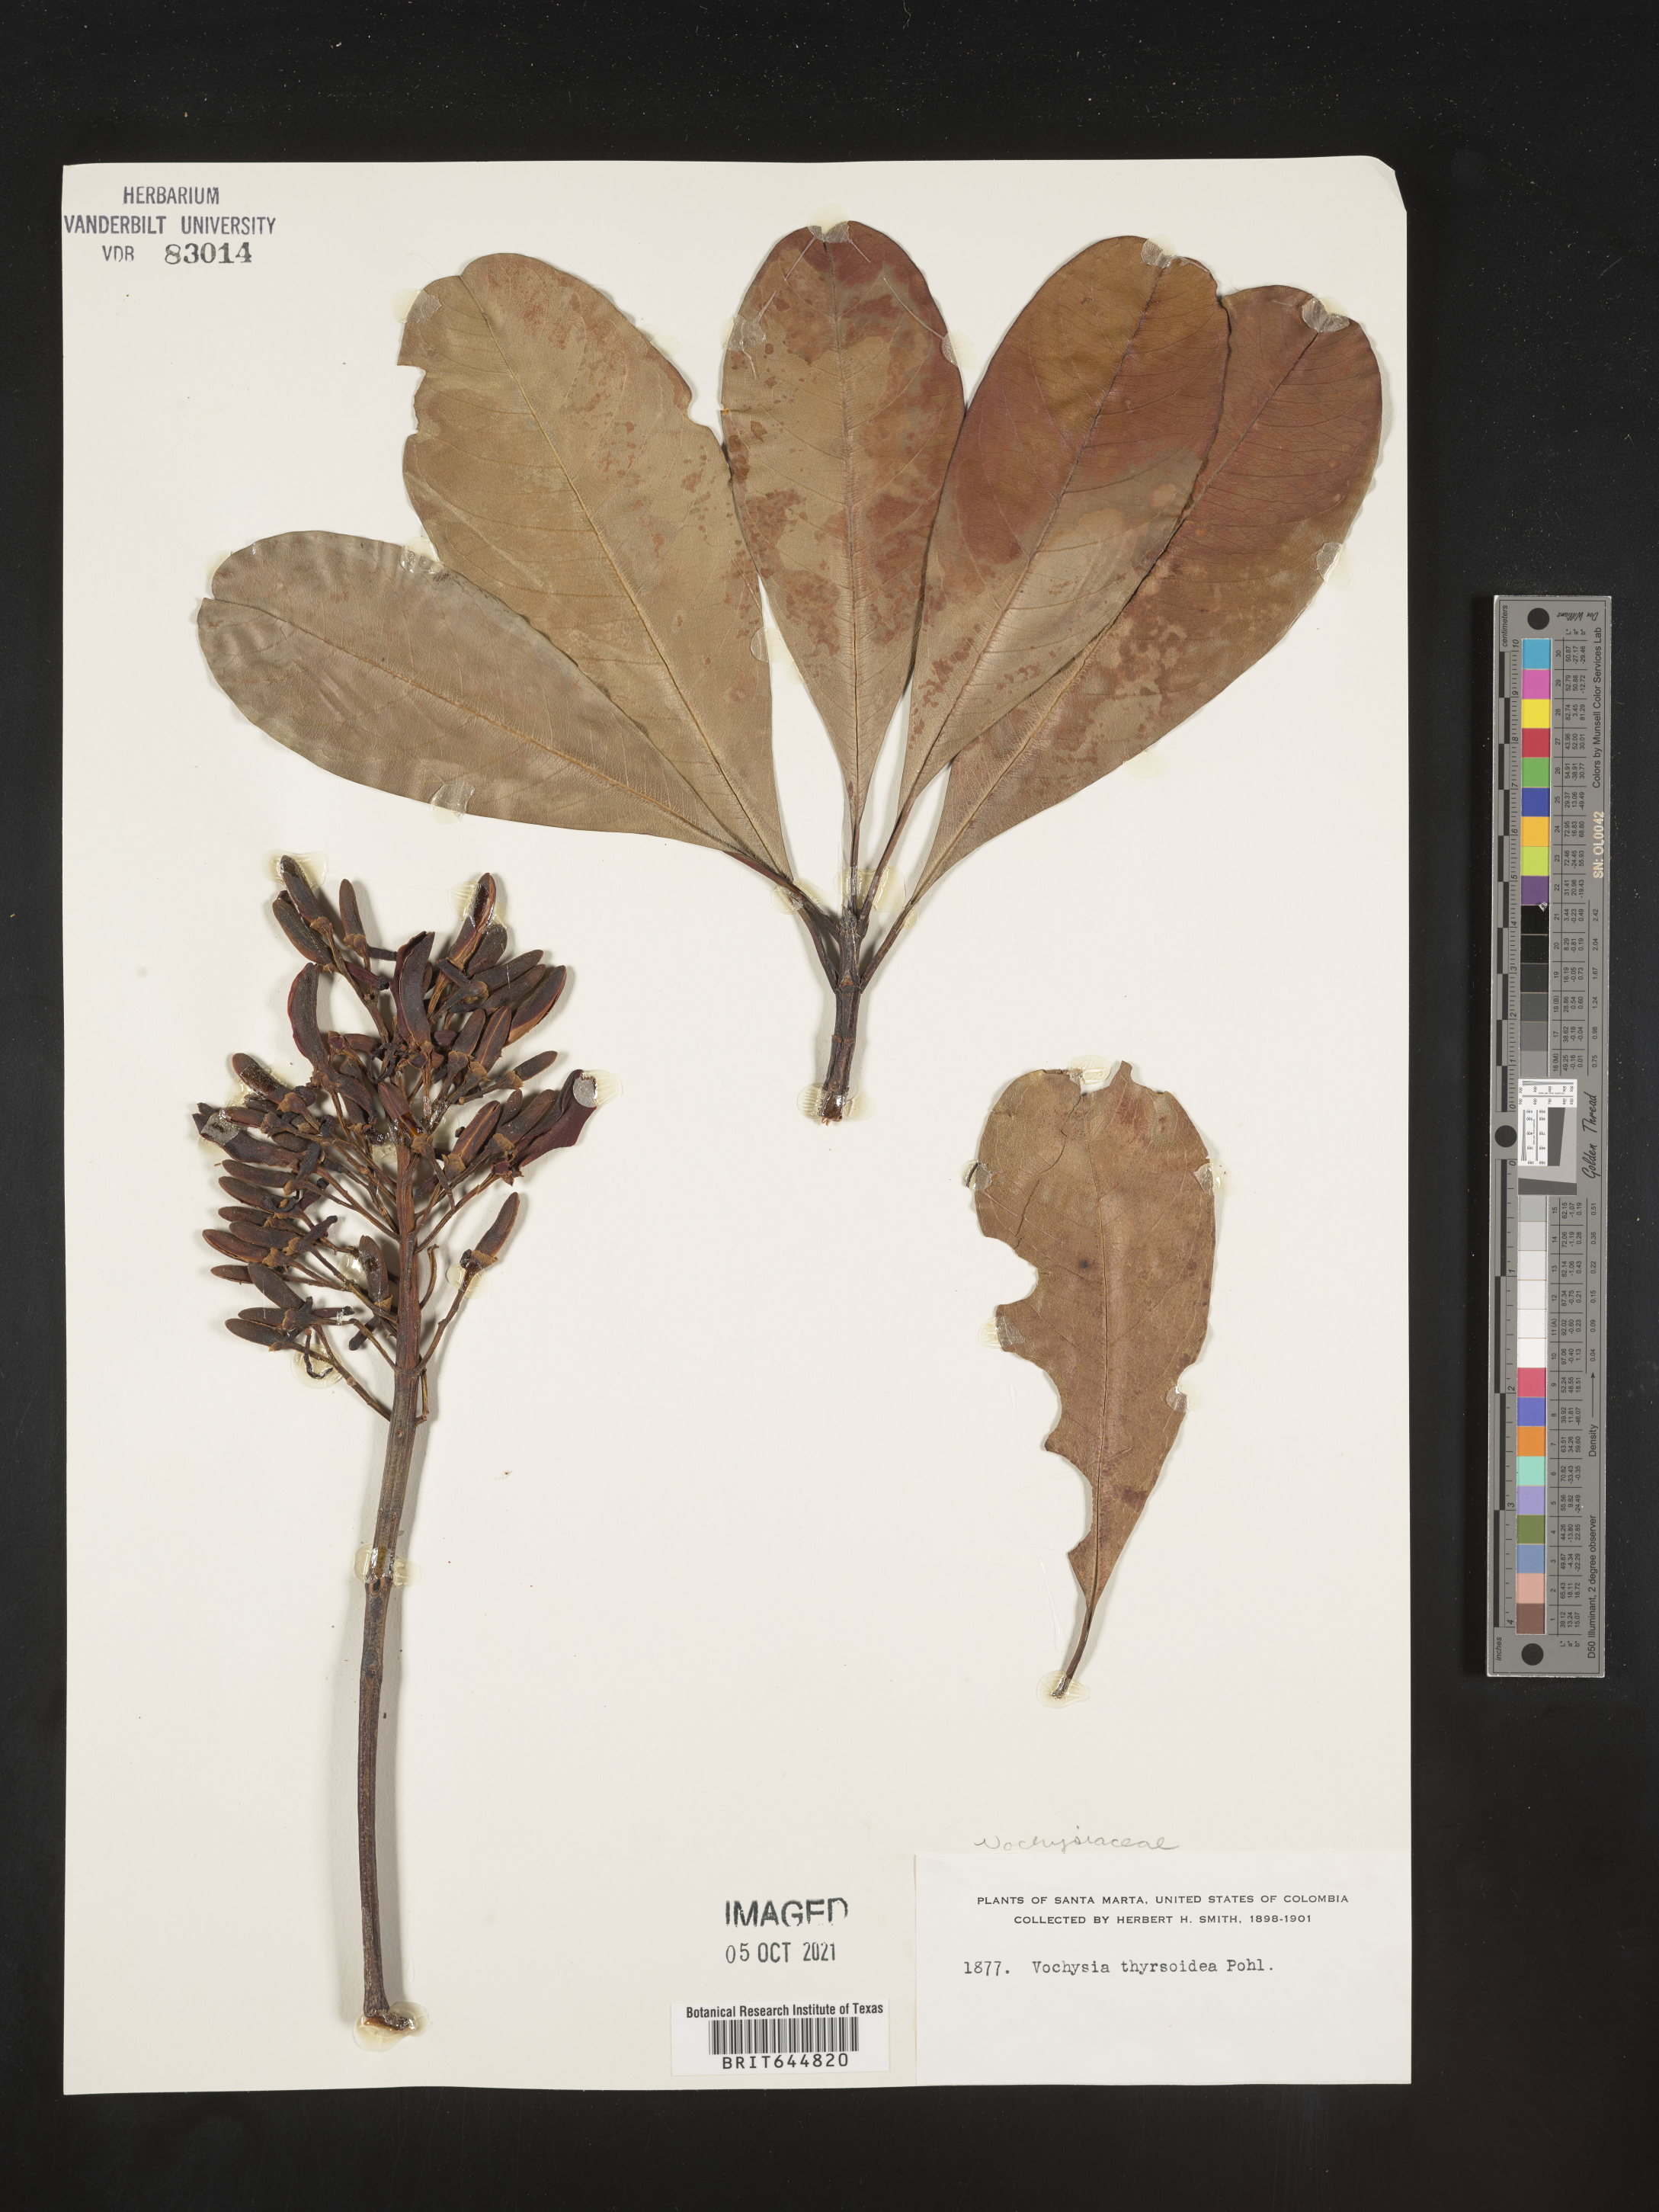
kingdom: Plantae
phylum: Tracheophyta
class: Magnoliopsida
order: Myrtales
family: Vochysiaceae
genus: Vochysia
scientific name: Vochysia
